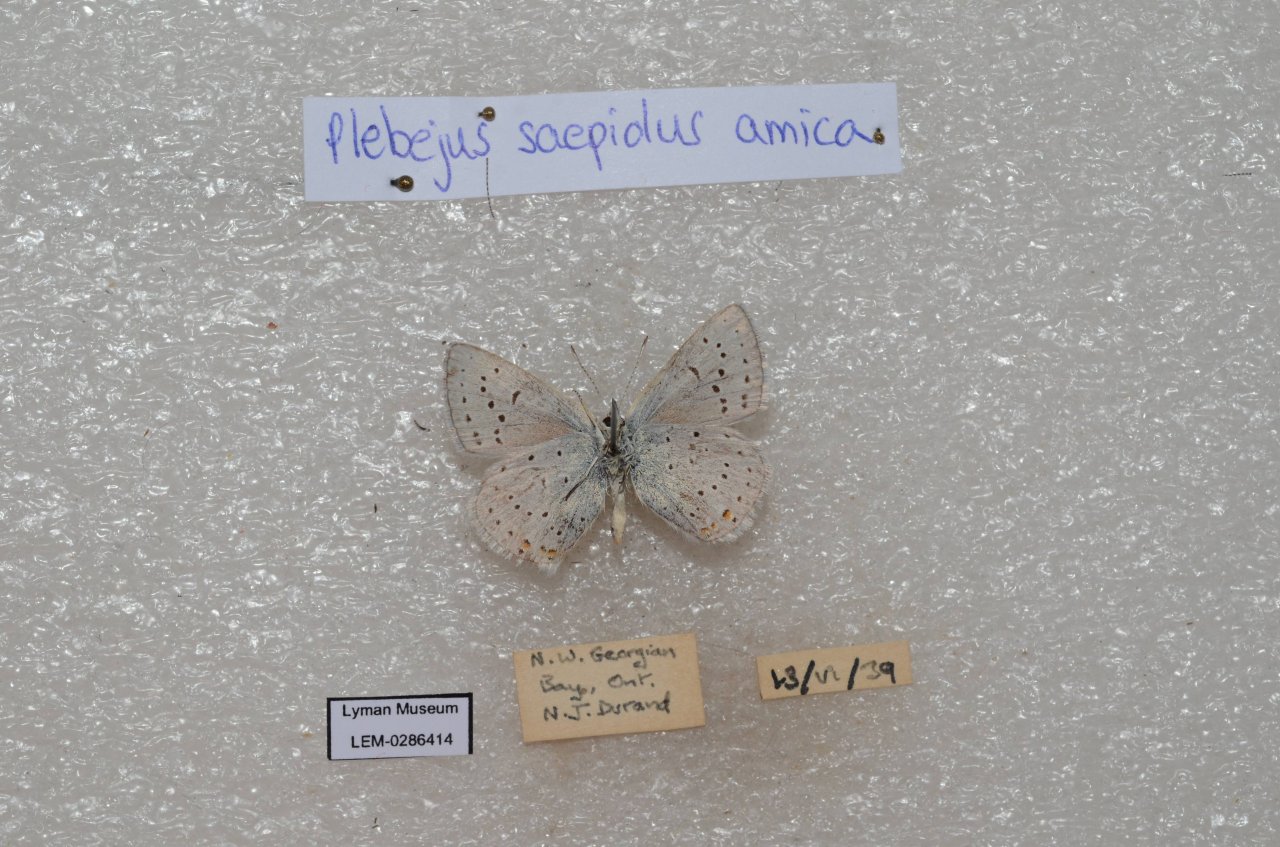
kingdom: Animalia
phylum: Arthropoda
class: Insecta
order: Lepidoptera
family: Lycaenidae
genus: Plebejus
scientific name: Plebejus saepiolus
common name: Greenish Blue
